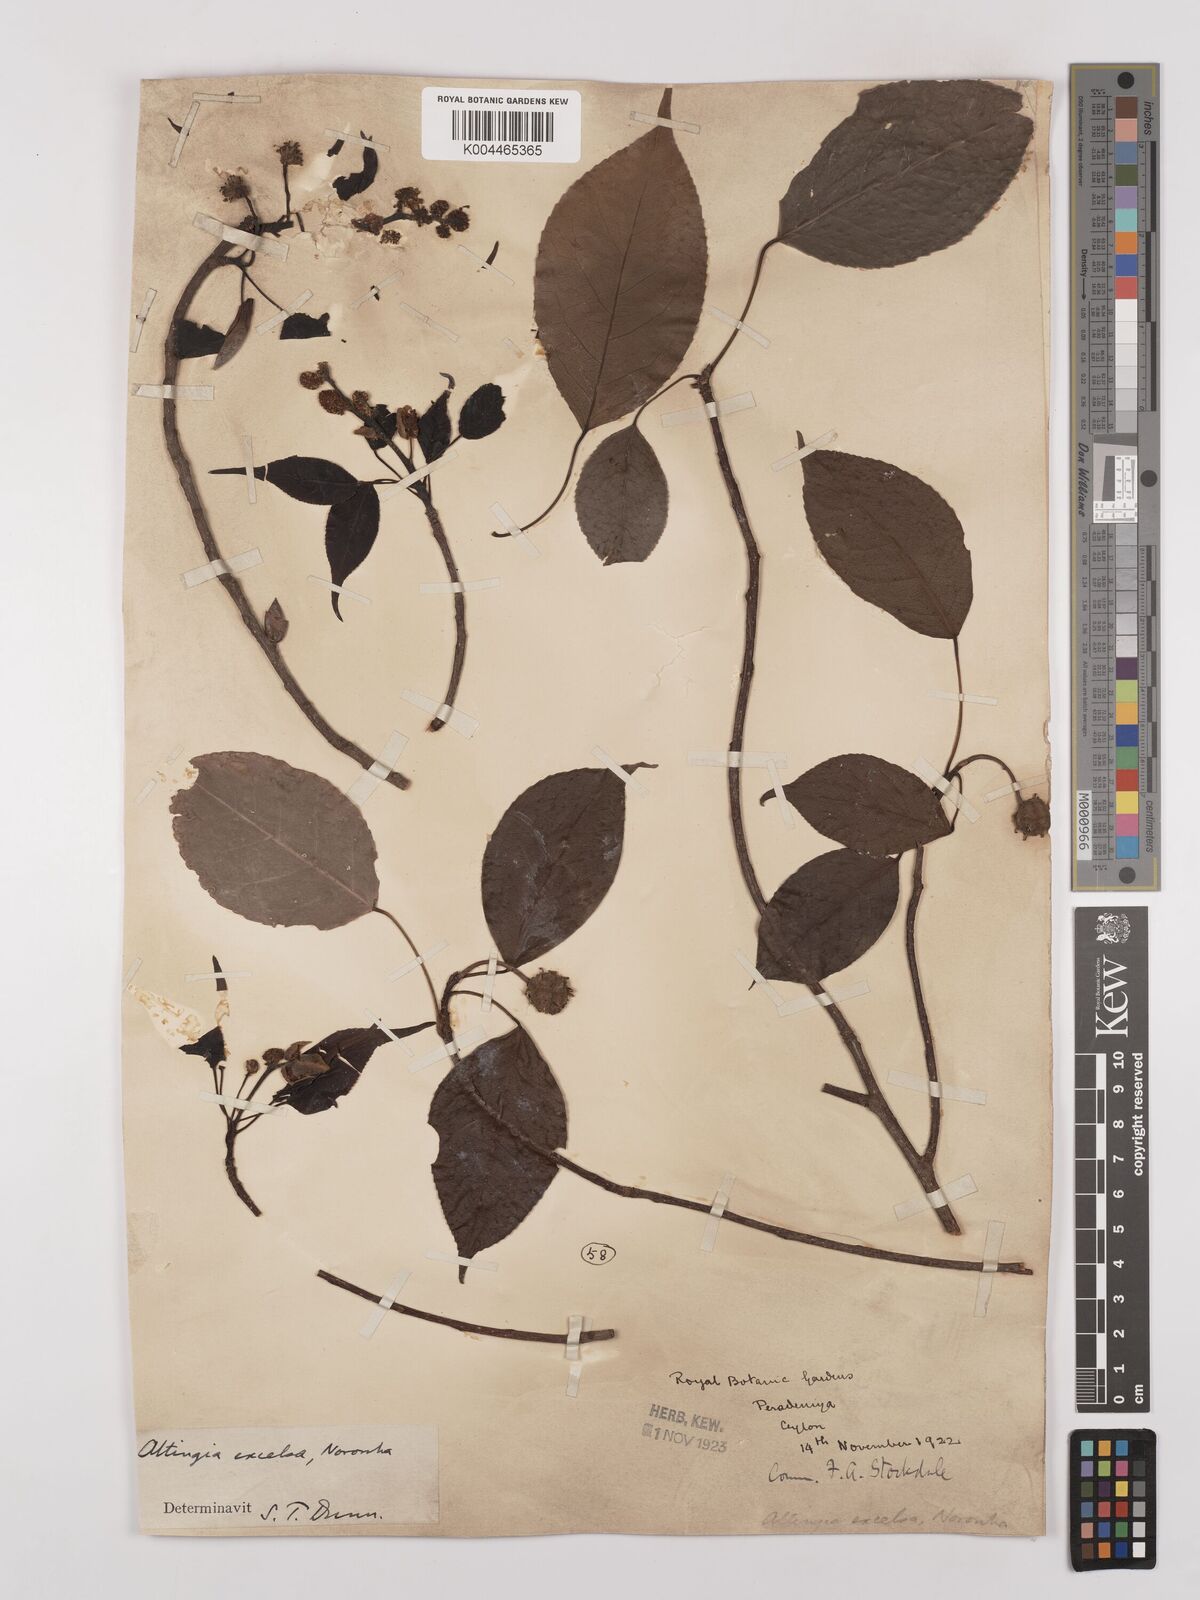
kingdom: Plantae
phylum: Tracheophyta
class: Magnoliopsida
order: Saxifragales
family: Altingiaceae
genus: Liquidambar
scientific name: Liquidambar excelsa
